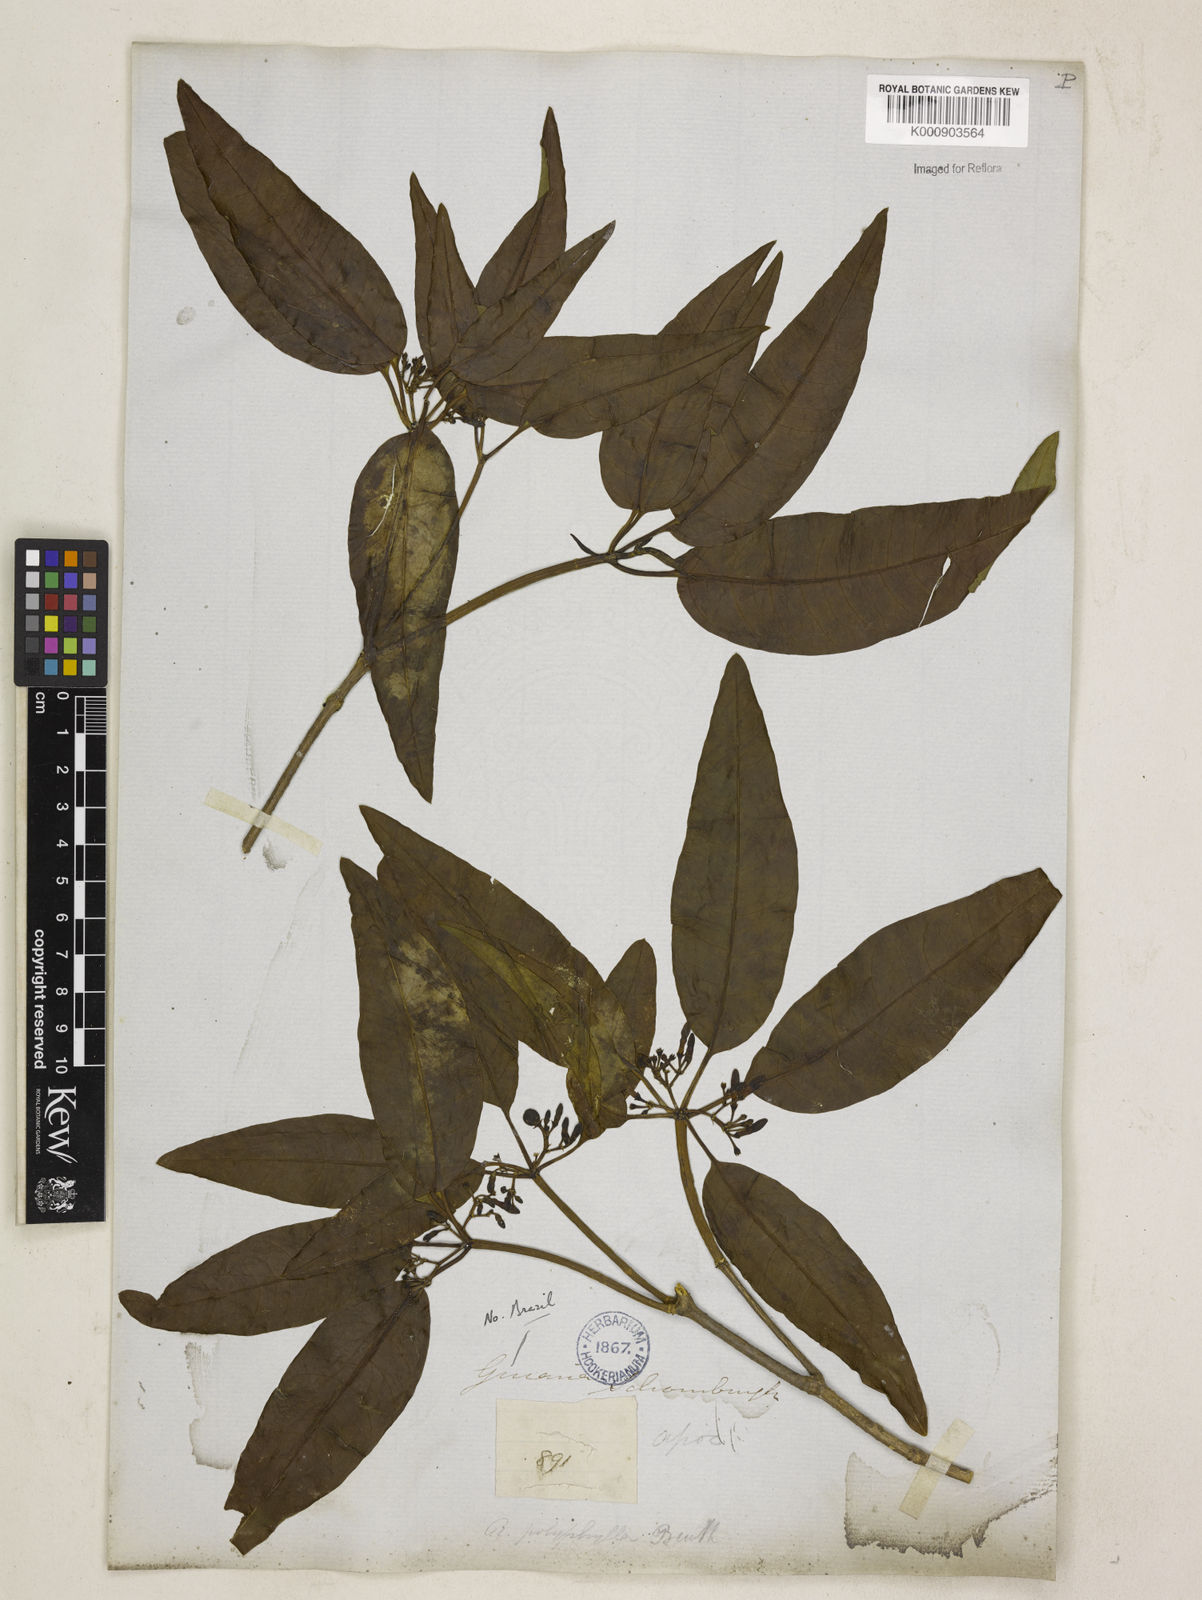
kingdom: Plantae
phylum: Tracheophyta
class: Magnoliopsida
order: Gentianales
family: Apocynaceae
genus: Rauvolfia
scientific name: Rauvolfia polyphylla
